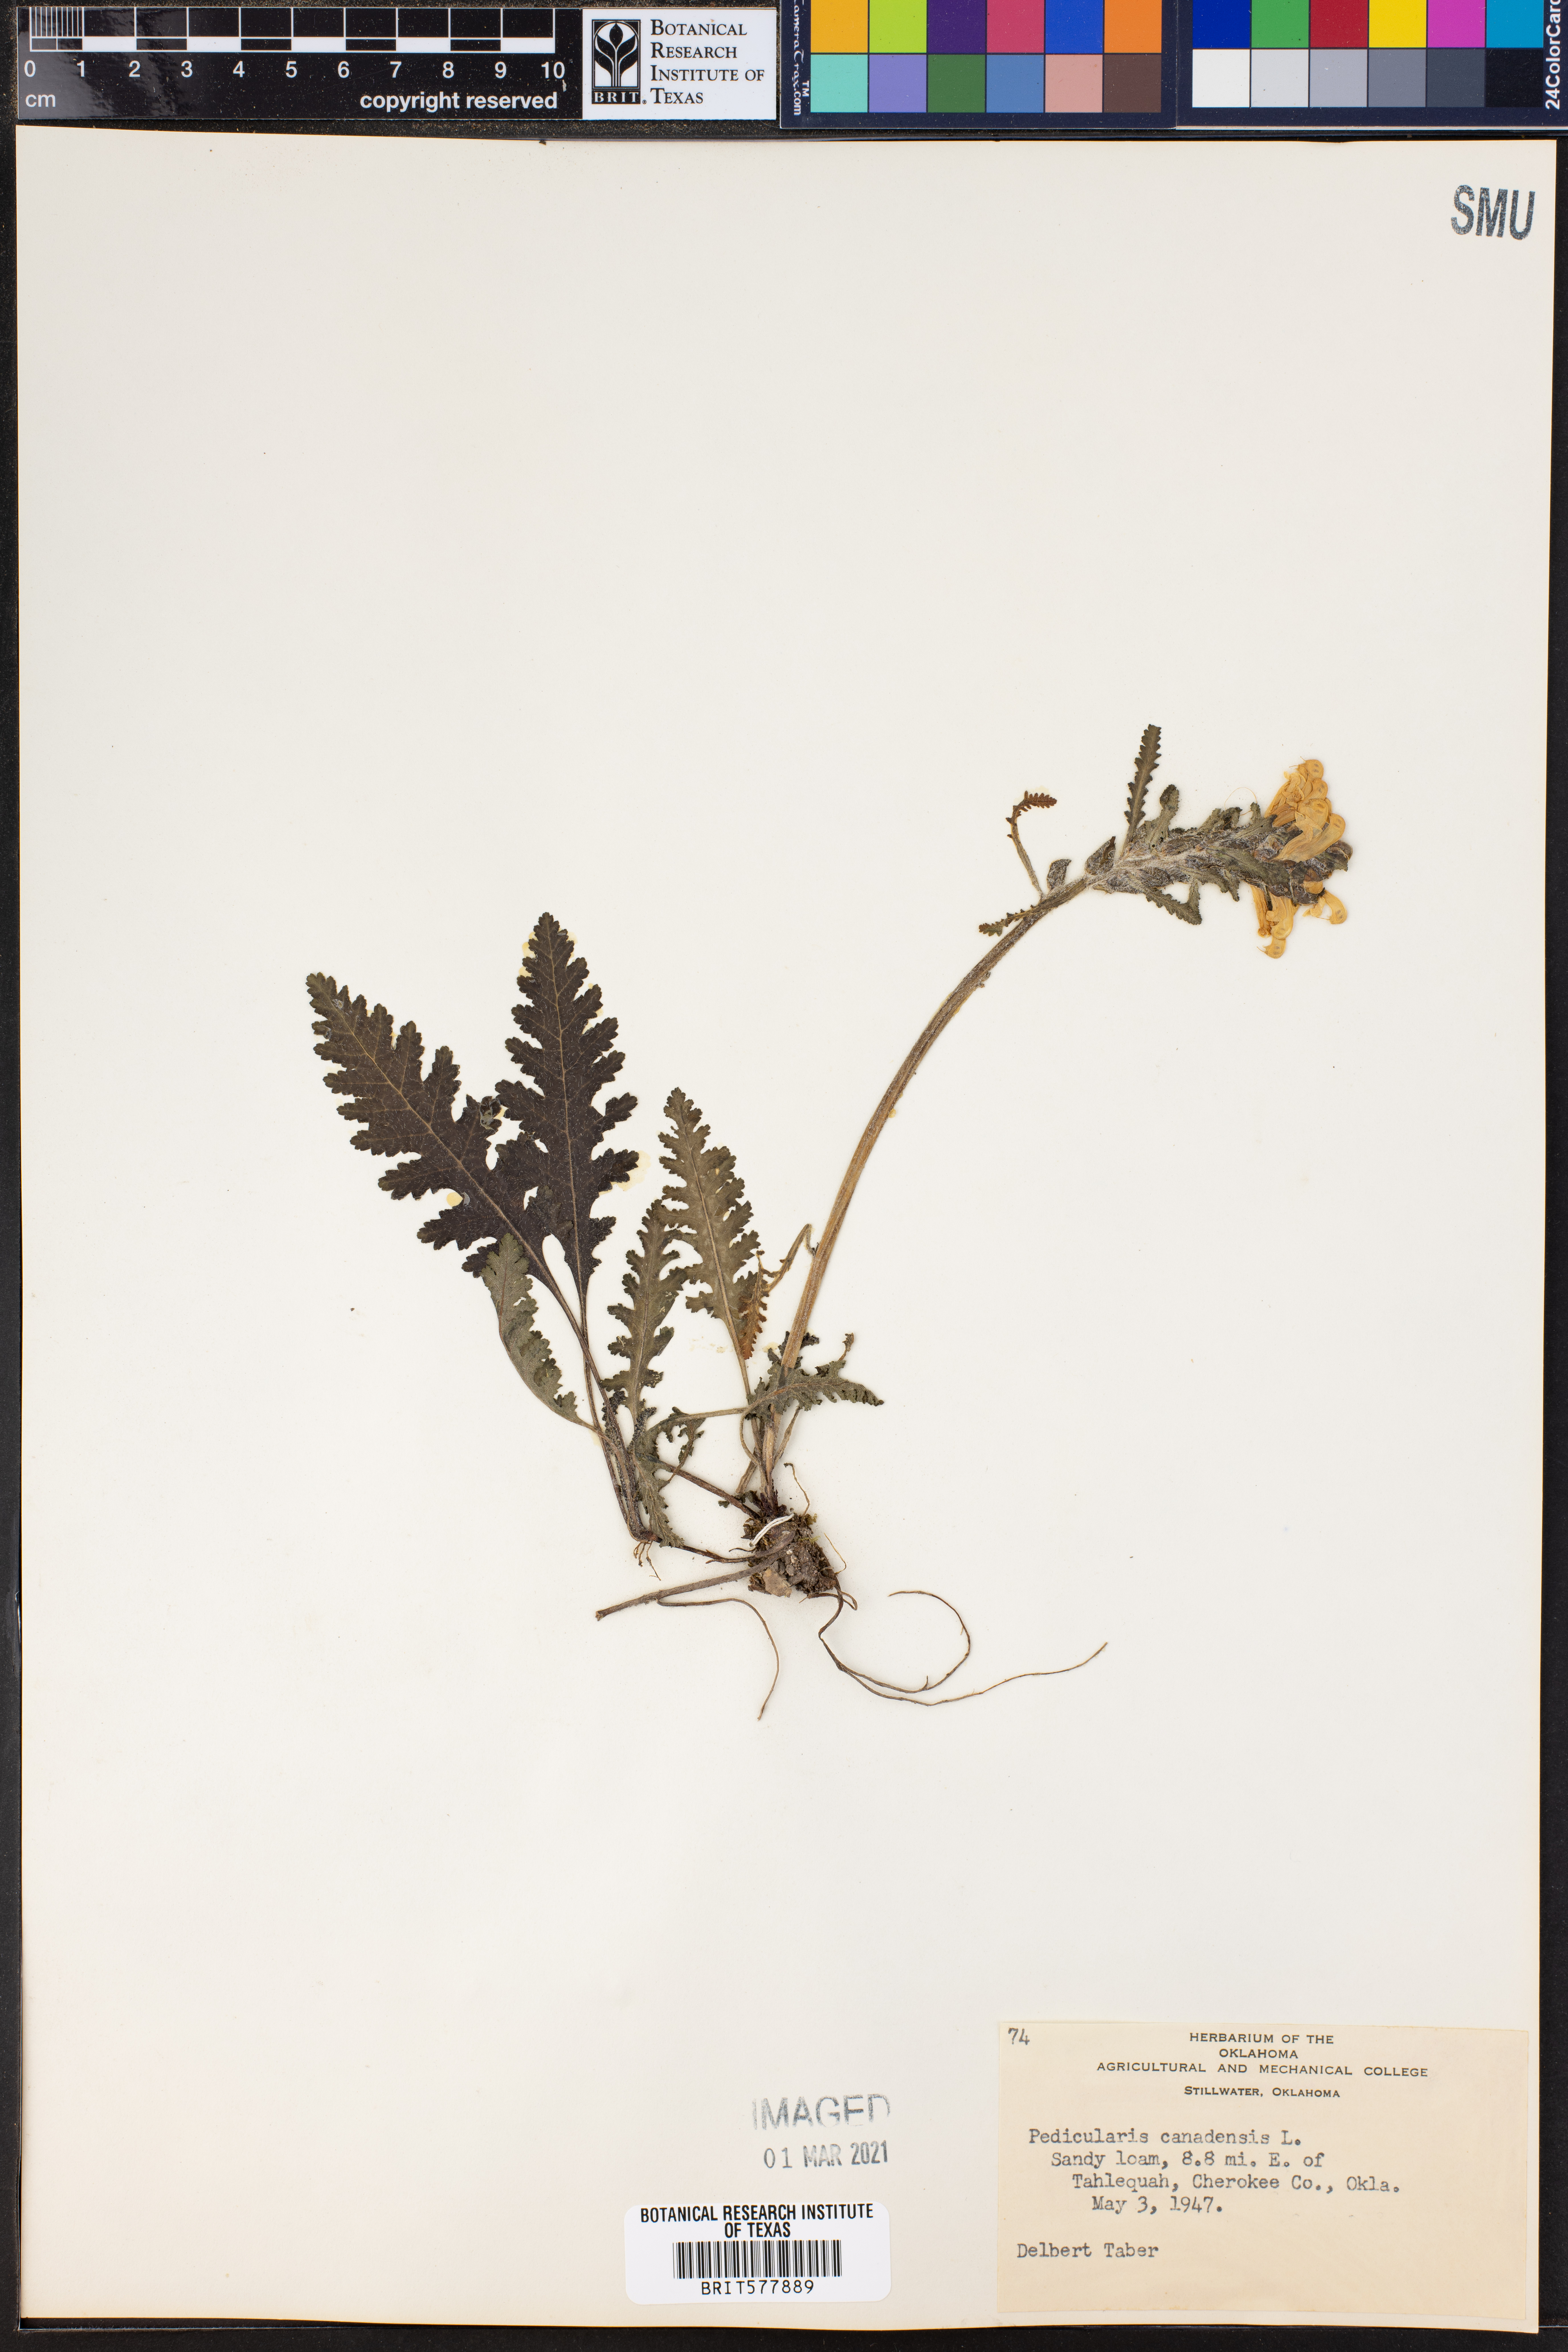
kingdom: Plantae
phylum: Tracheophyta
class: Magnoliopsida
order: Lamiales
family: Orobanchaceae
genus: Pedicularis
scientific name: Pedicularis canadensis
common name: Early lousewort
